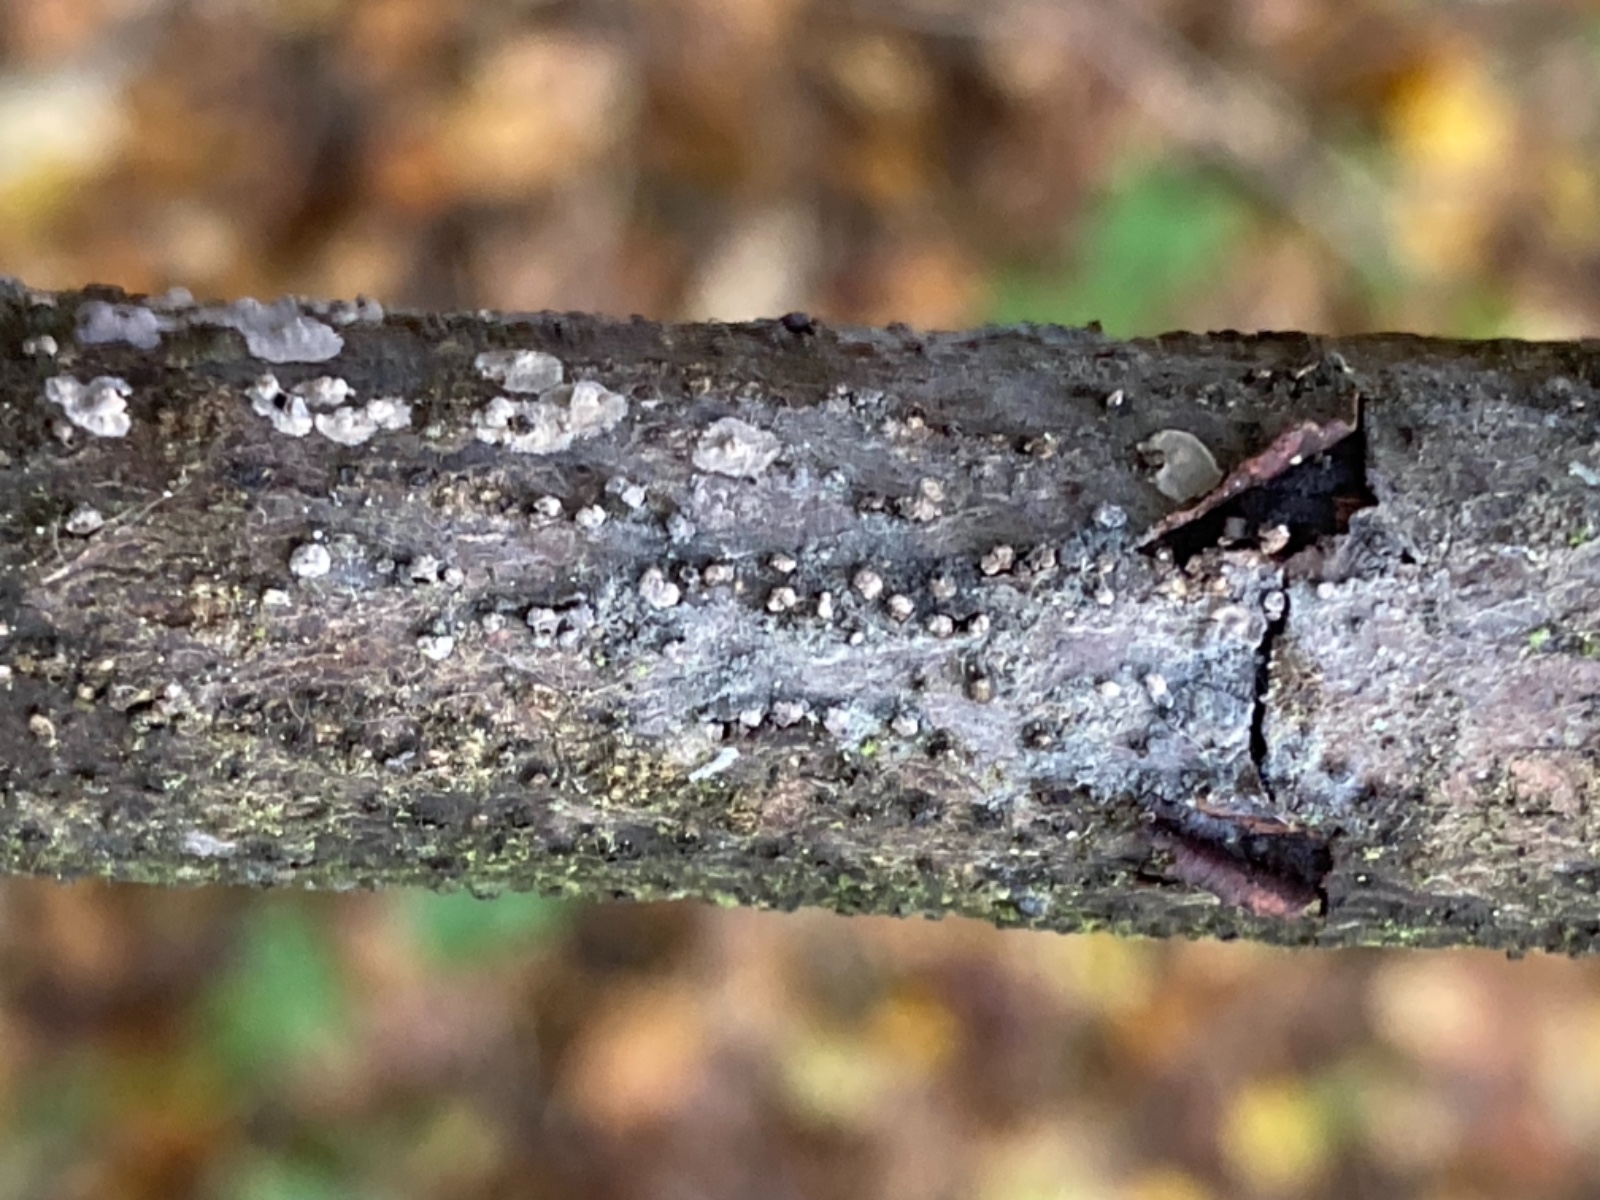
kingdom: Fungi
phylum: Ascomycota
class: Leotiomycetes
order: Helotiales
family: Dermateaceae
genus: Pezicula
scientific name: Pezicula frangulae
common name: sortnende klyngeskive
